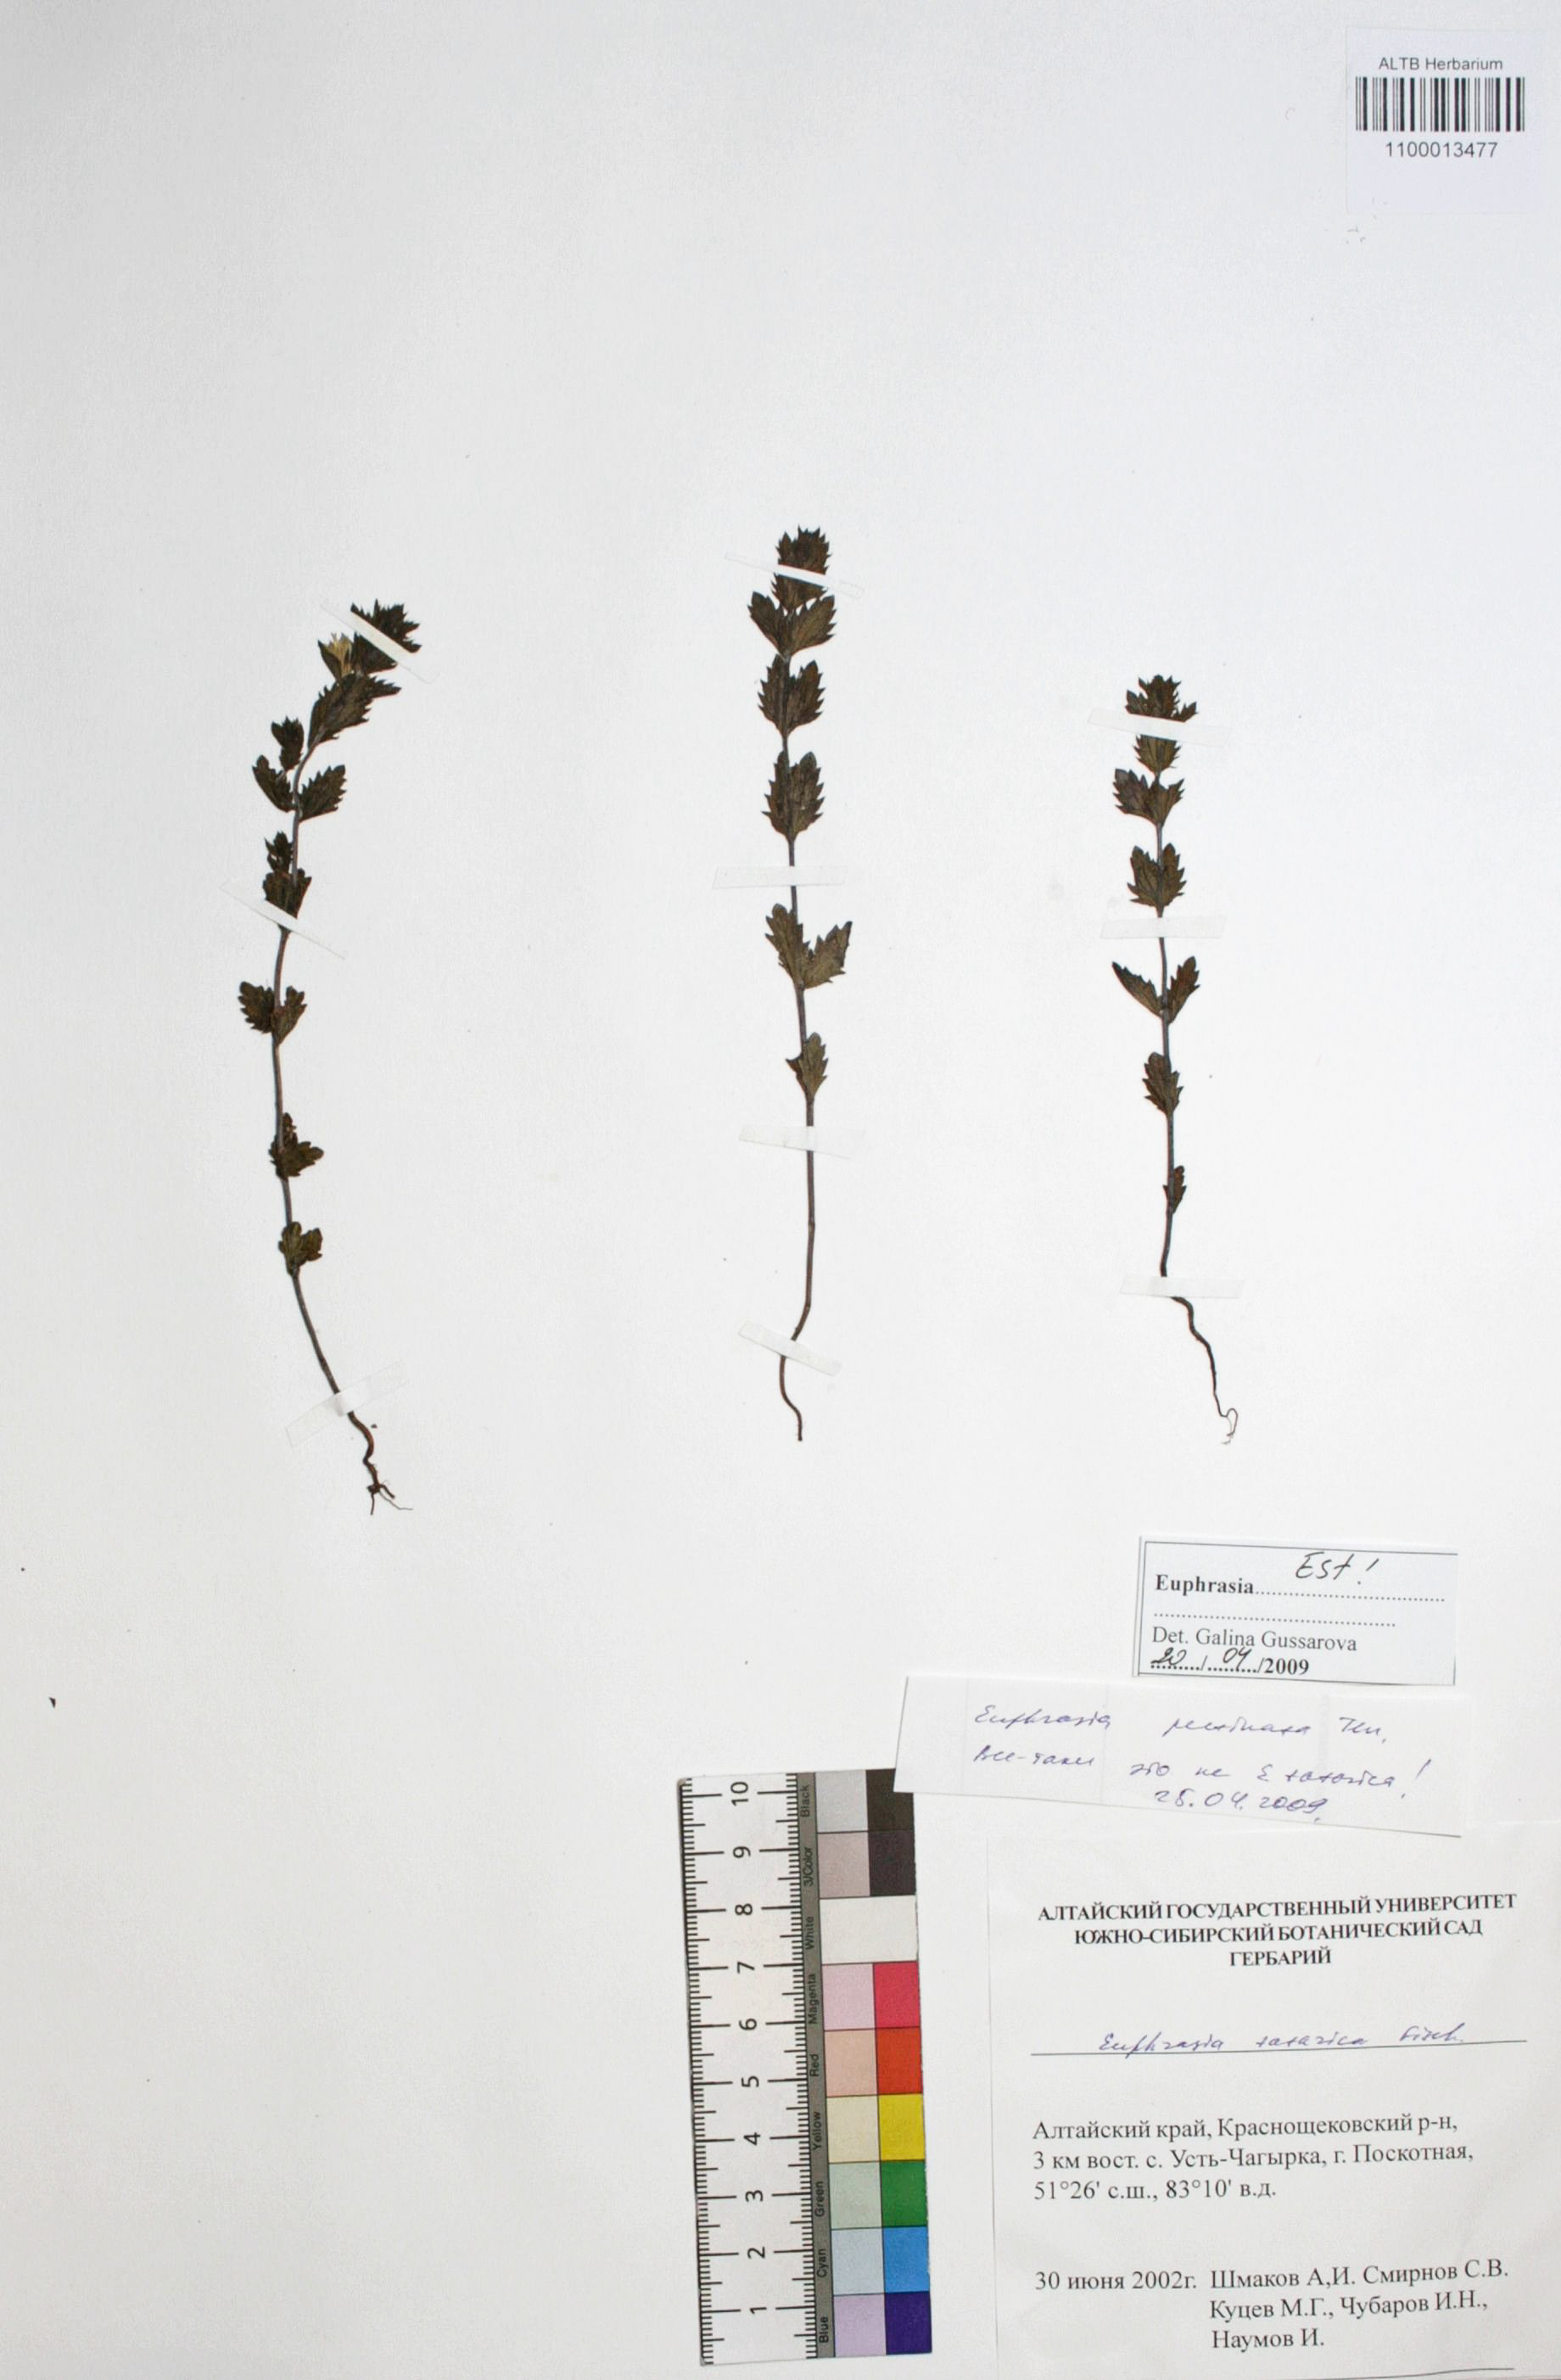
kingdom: Plantae
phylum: Tracheophyta
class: Magnoliopsida
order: Lamiales
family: Orobanchaceae
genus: Euphrasia
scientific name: Euphrasia pectinata
